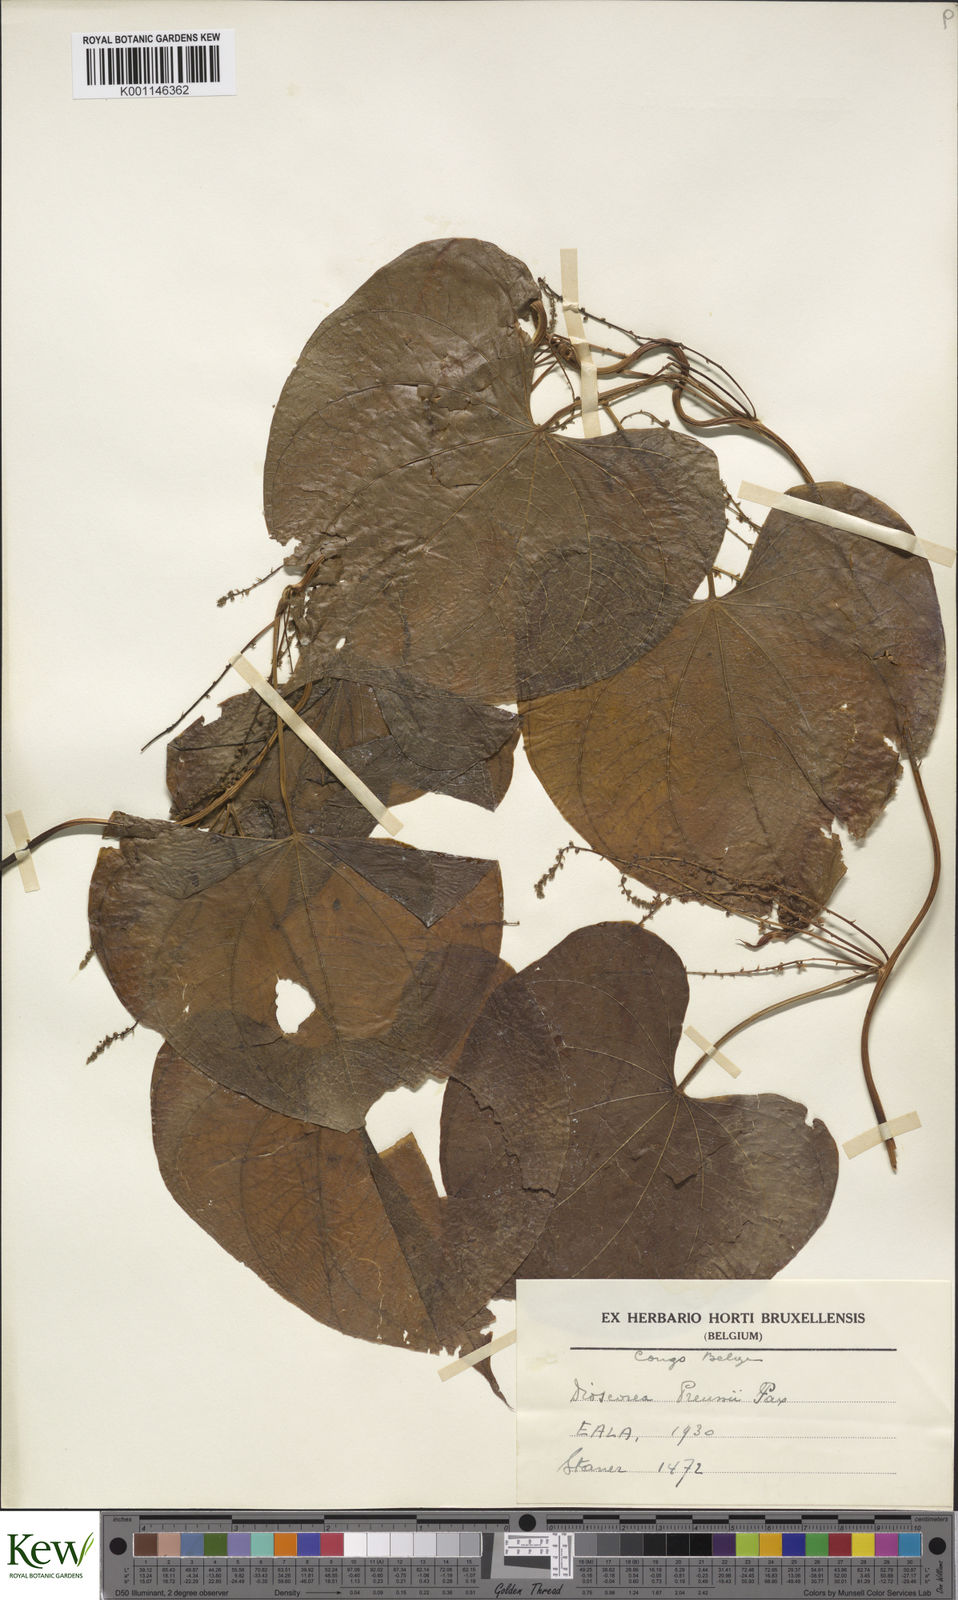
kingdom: Plantae
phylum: Tracheophyta
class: Liliopsida
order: Dioscoreales
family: Dioscoreaceae
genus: Dioscorea
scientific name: Dioscorea preussii
